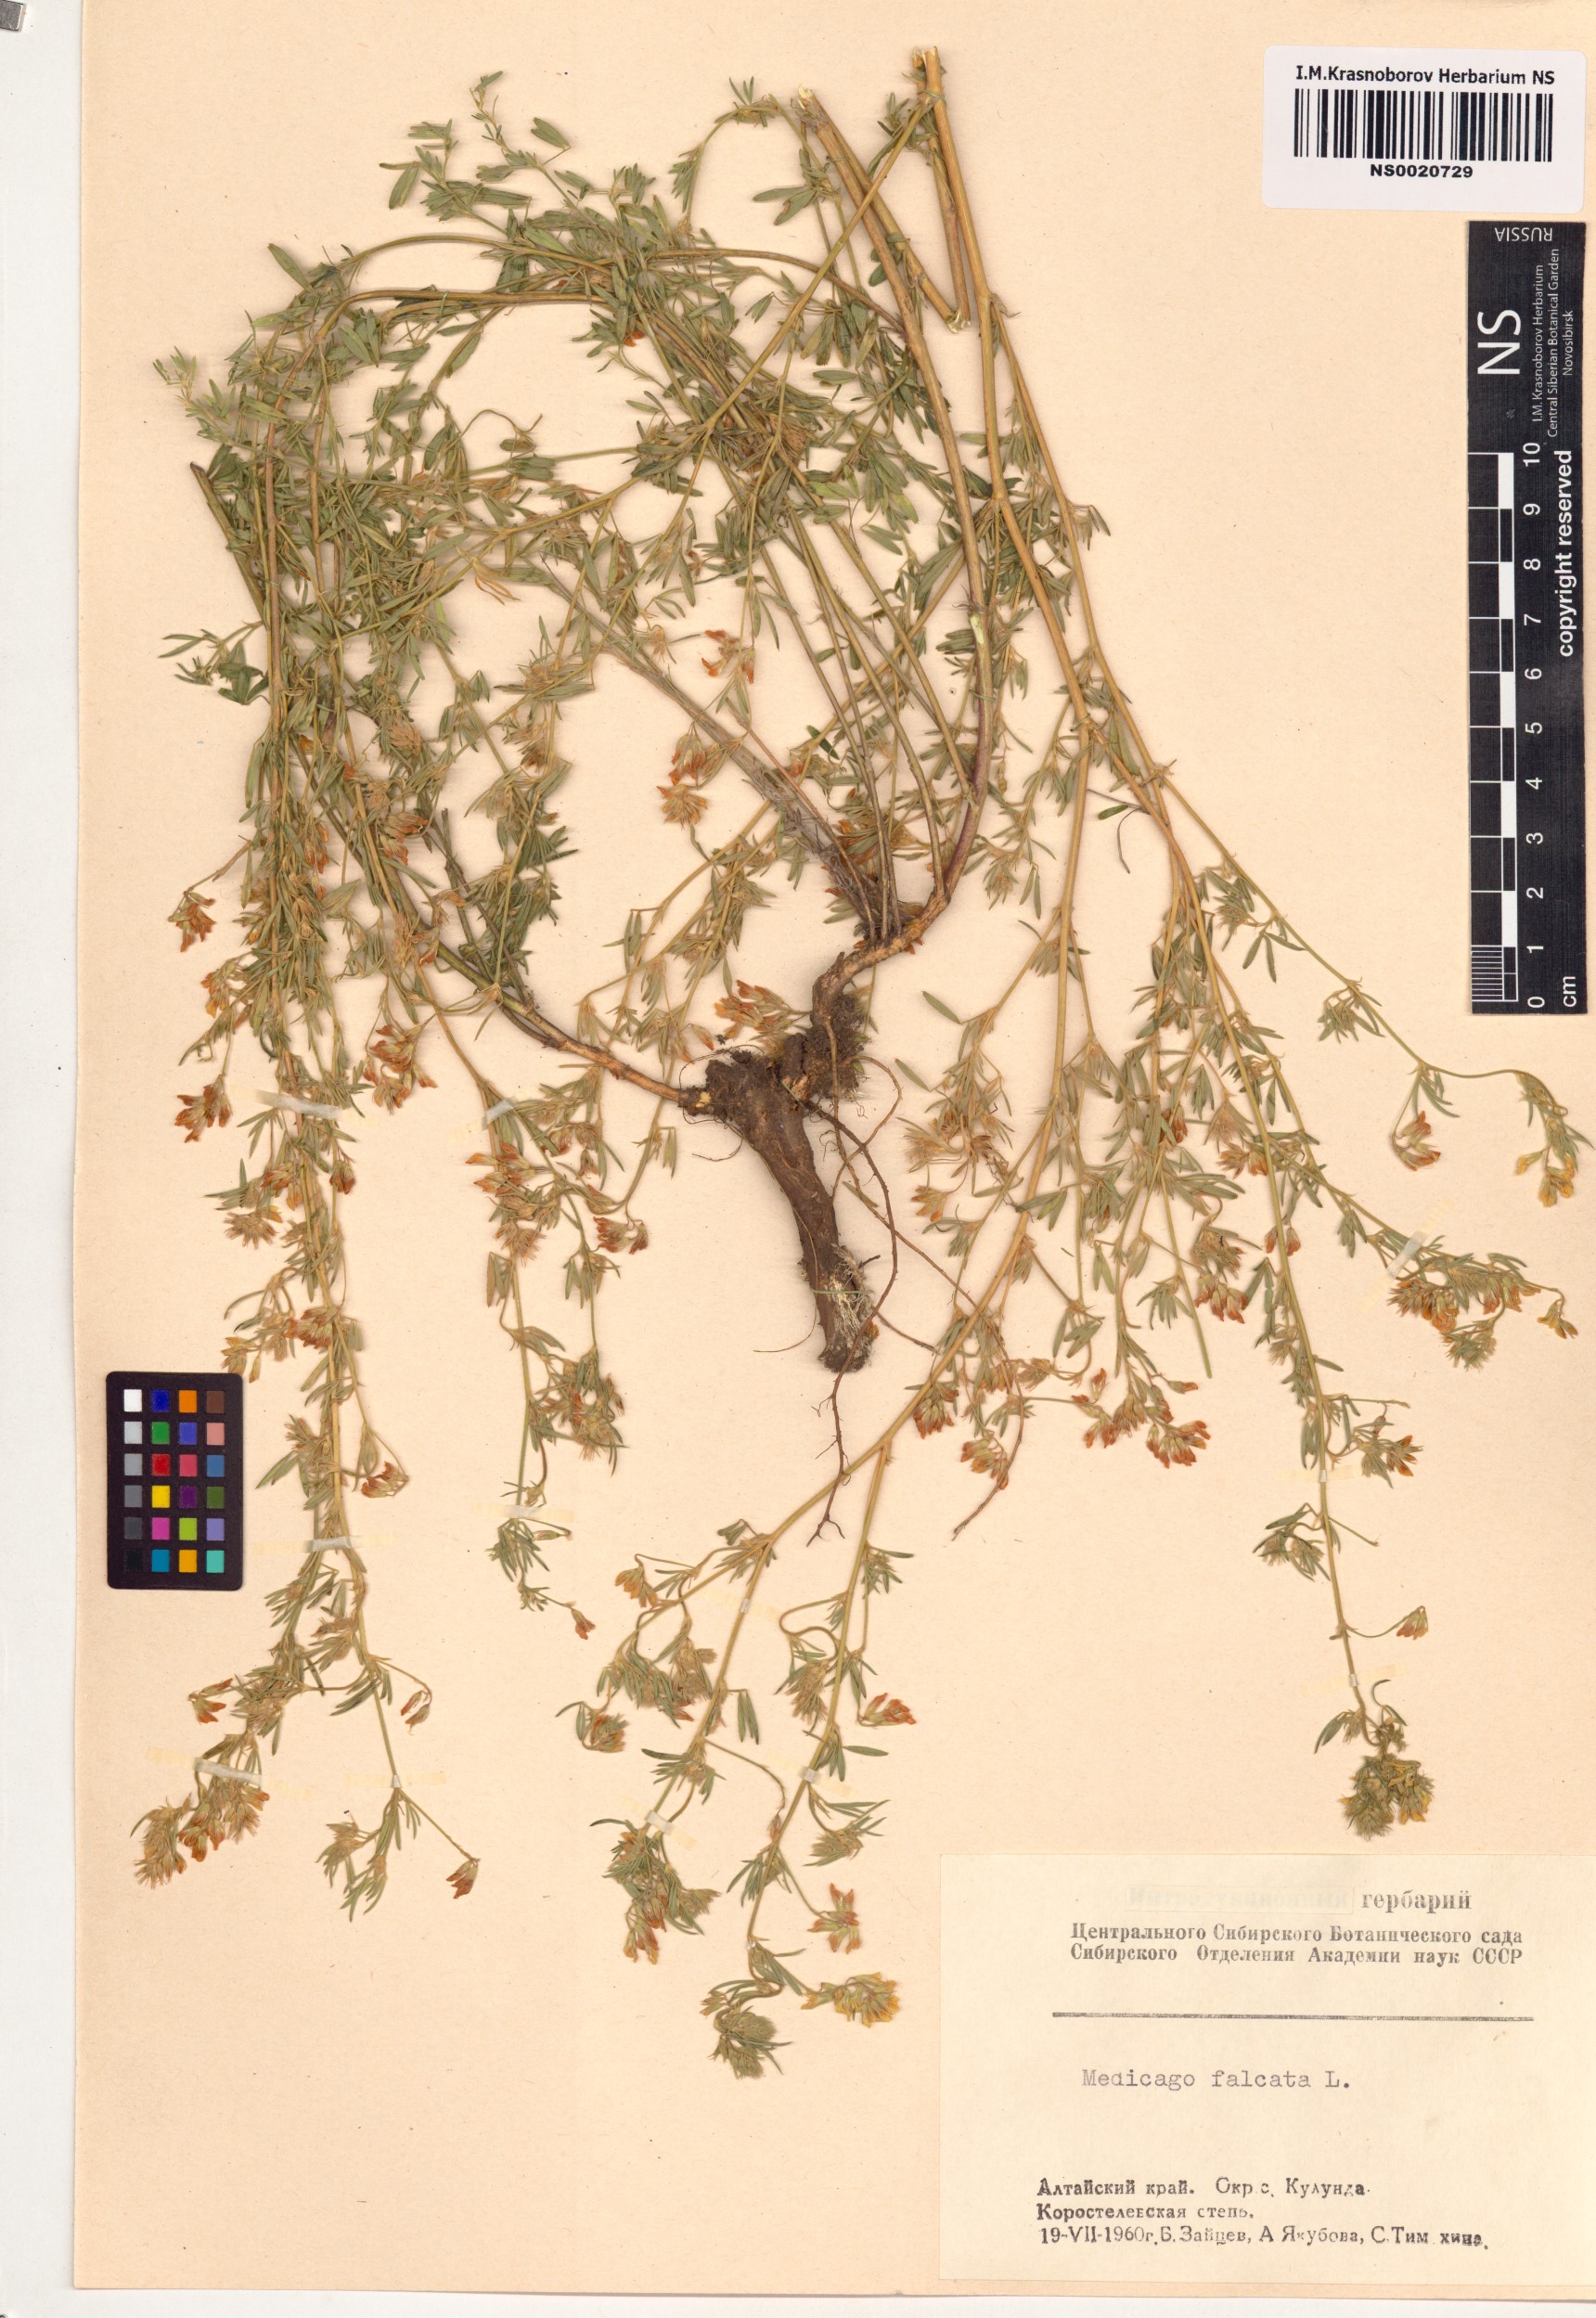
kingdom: Plantae
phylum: Tracheophyta
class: Magnoliopsida
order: Fabales
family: Fabaceae
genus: Medicago
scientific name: Medicago falcata
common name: Sickle medick
